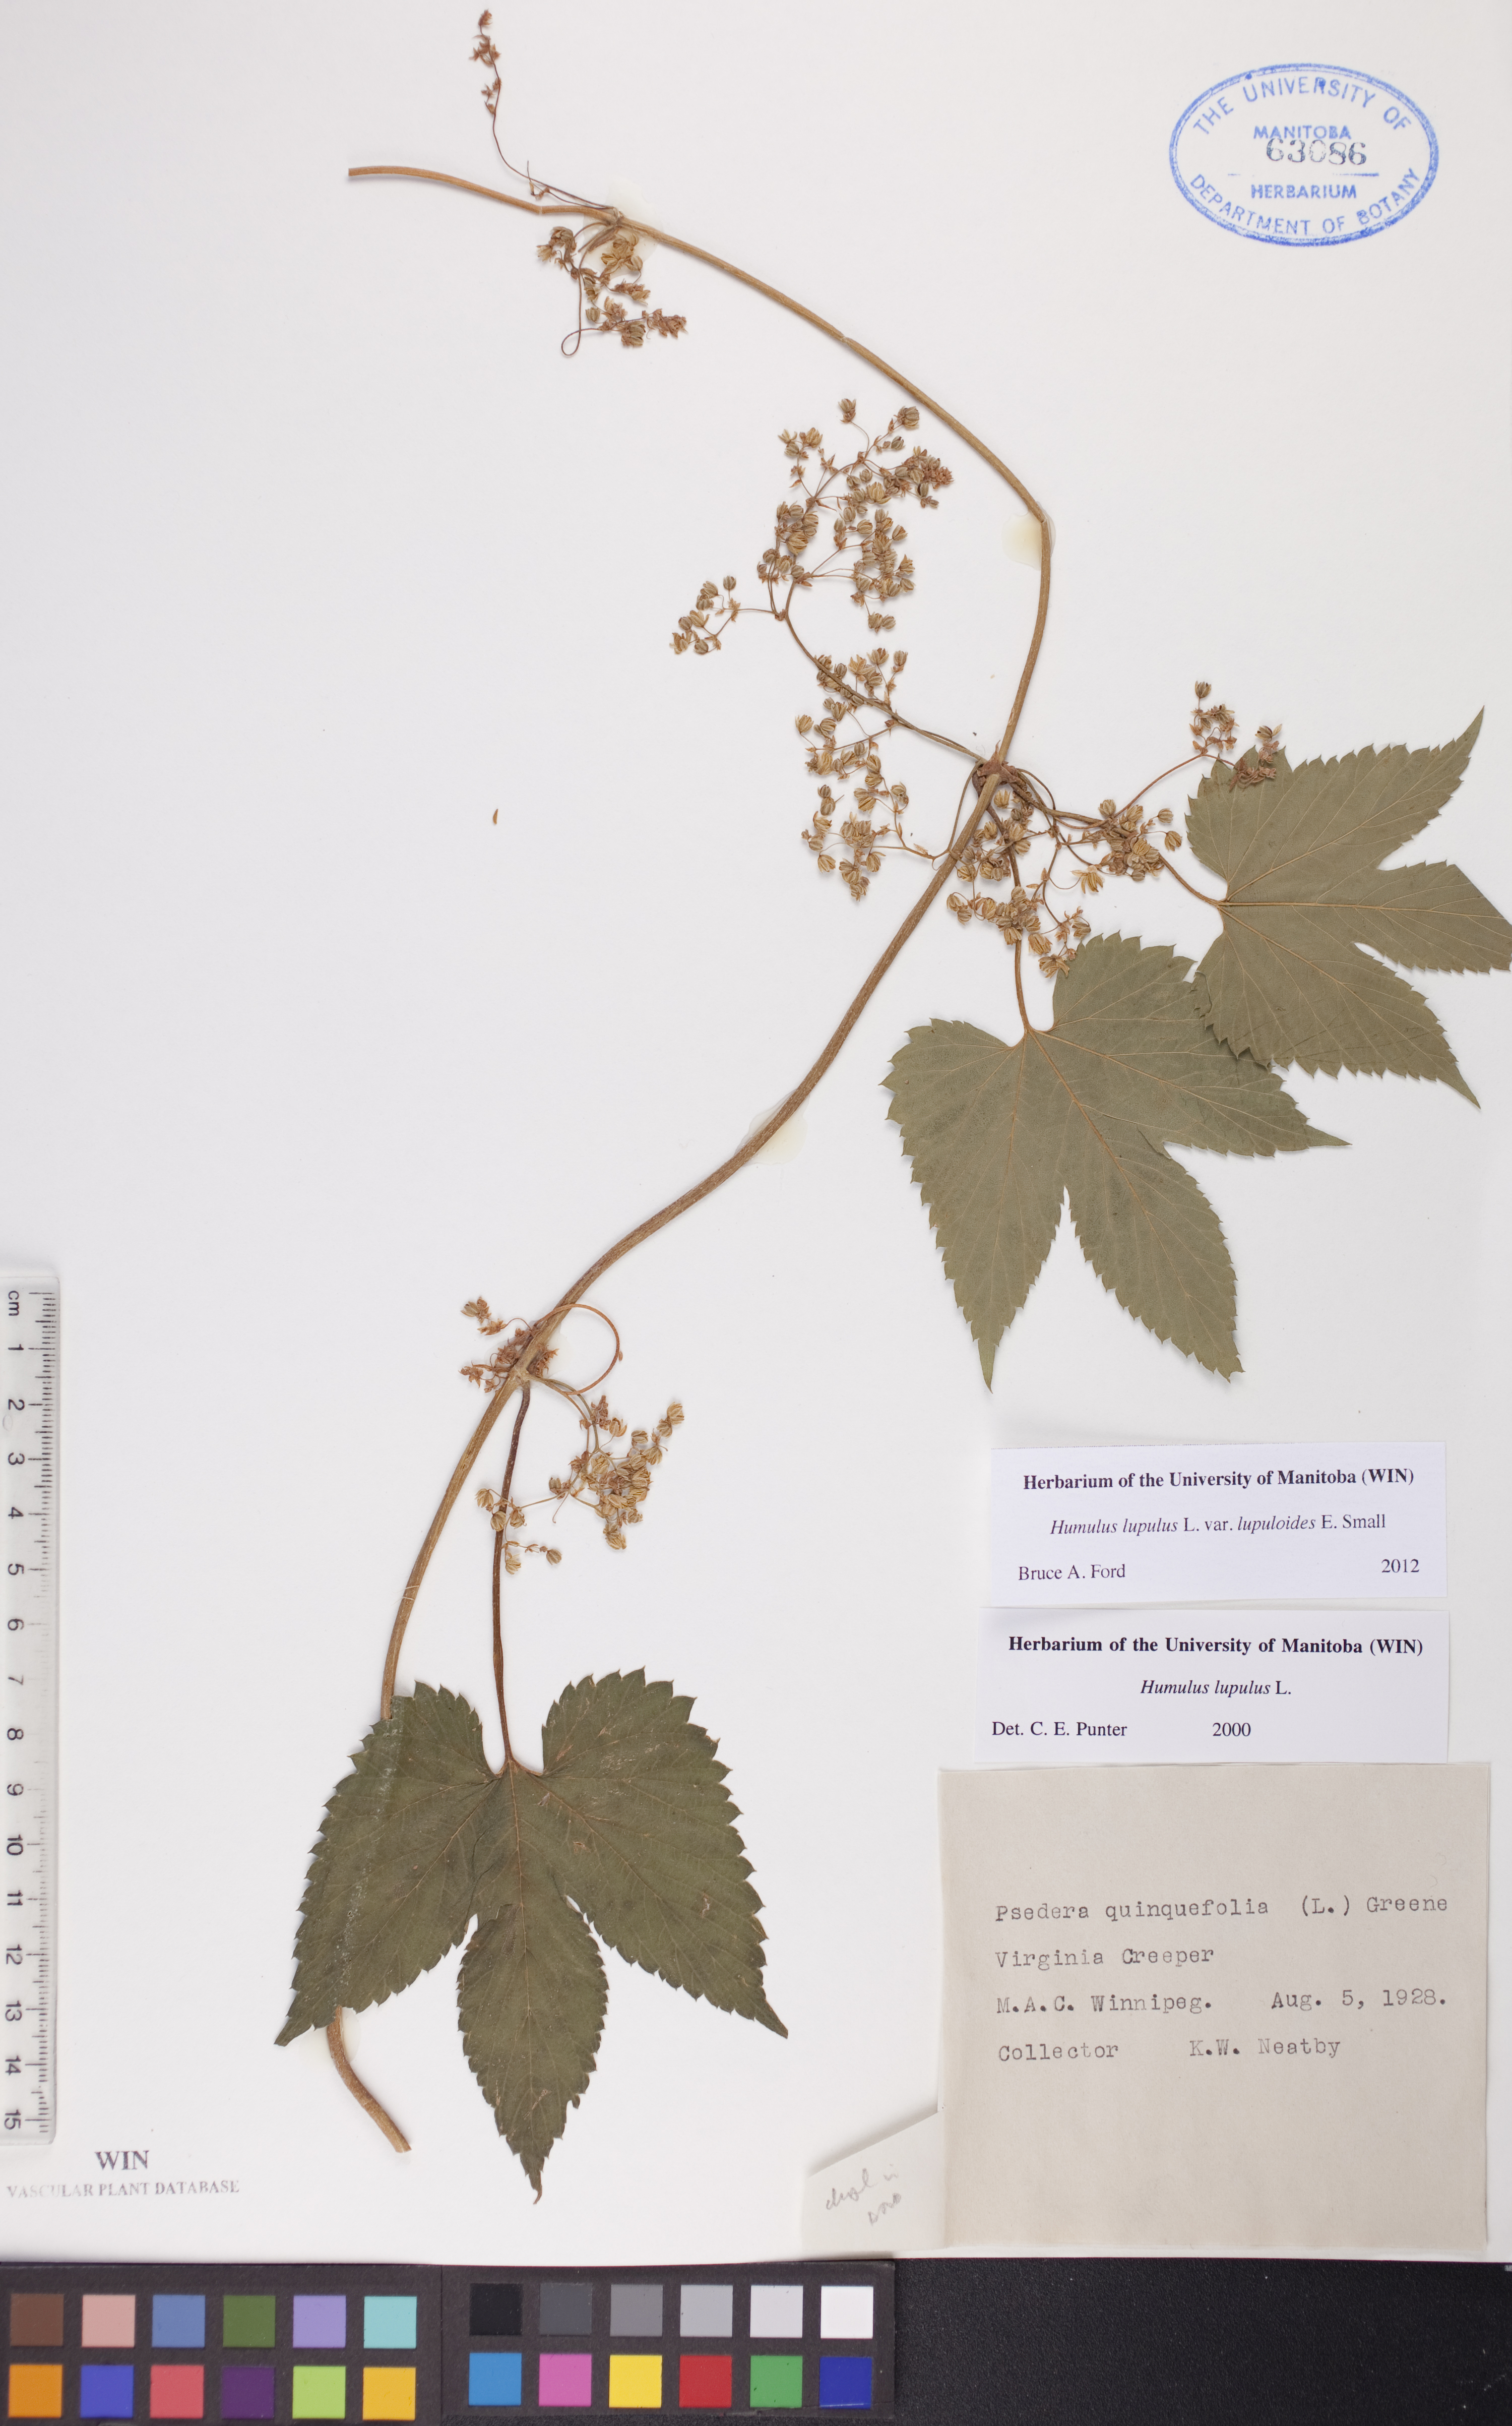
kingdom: Plantae
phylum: Tracheophyta
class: Magnoliopsida
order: Rosales
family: Cannabaceae
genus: Humulus
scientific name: Humulus americanus
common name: American hops
